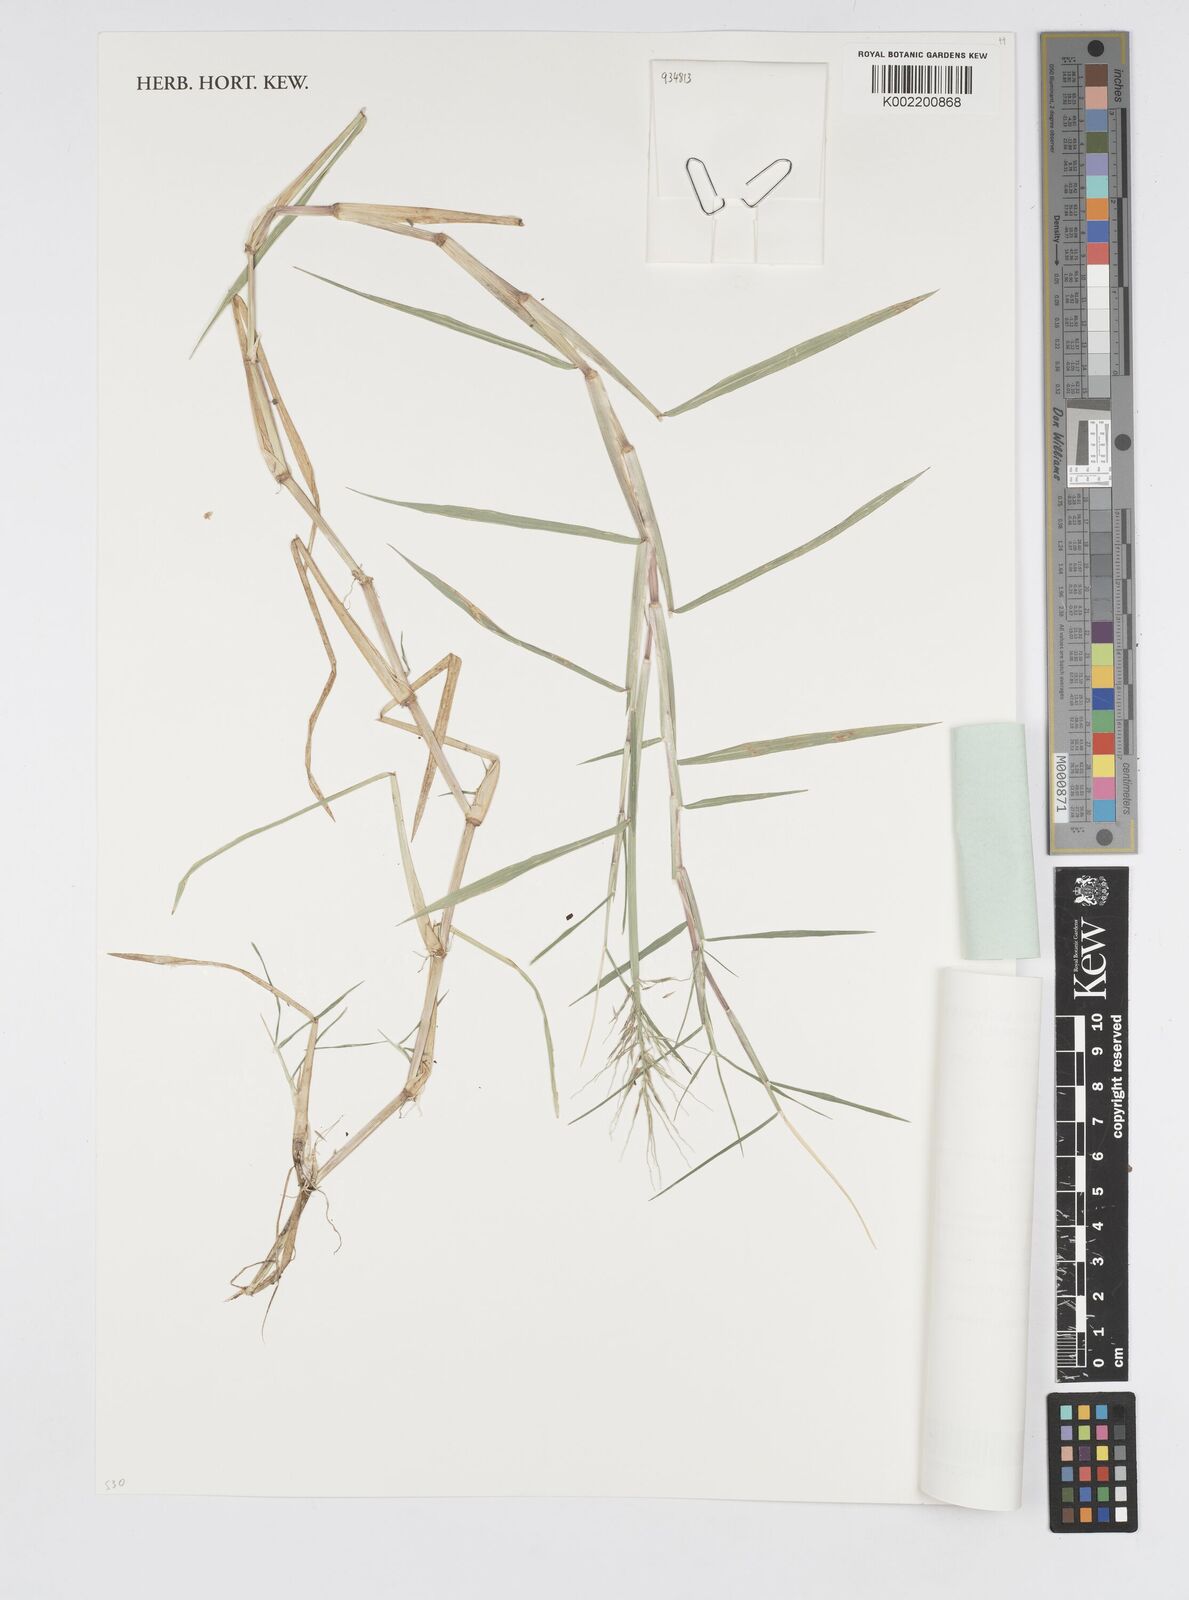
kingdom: Plantae
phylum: Tracheophyta
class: Liliopsida
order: Poales
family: Poaceae
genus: Pseudoraphis
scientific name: Pseudoraphis spinescens
